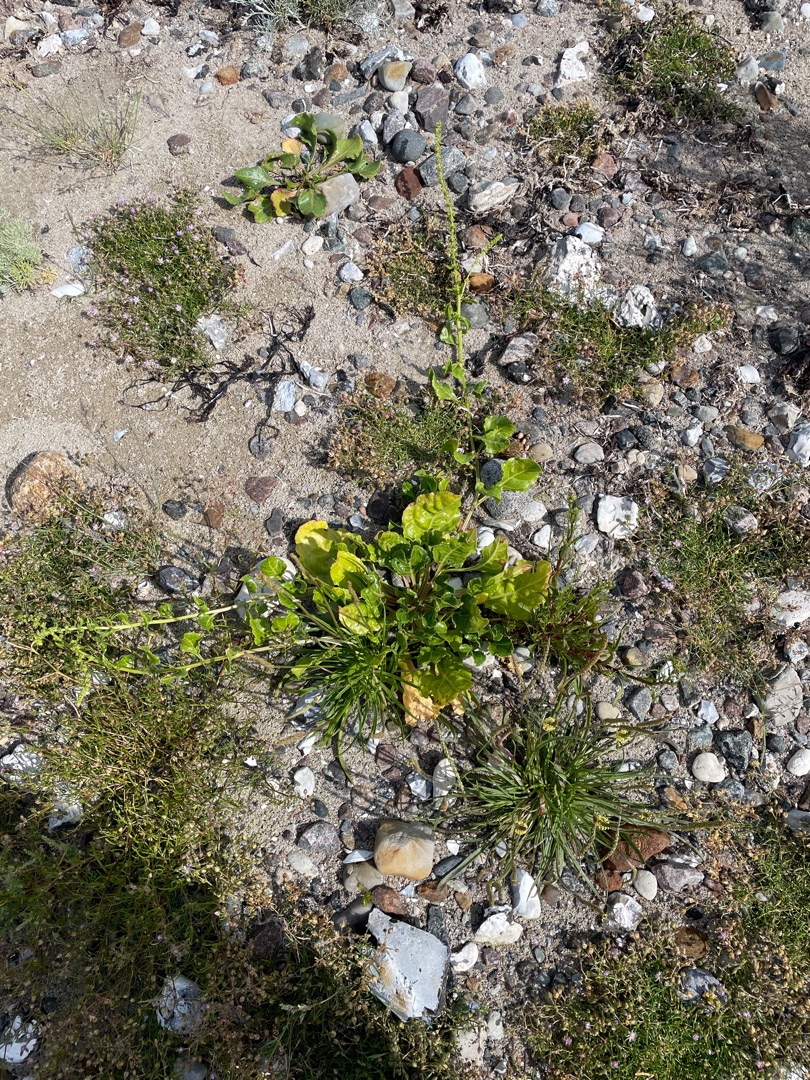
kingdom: Plantae
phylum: Tracheophyta
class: Magnoliopsida
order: Caryophyllales
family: Amaranthaceae
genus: Beta
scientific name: Beta maritima
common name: Strand-bede
